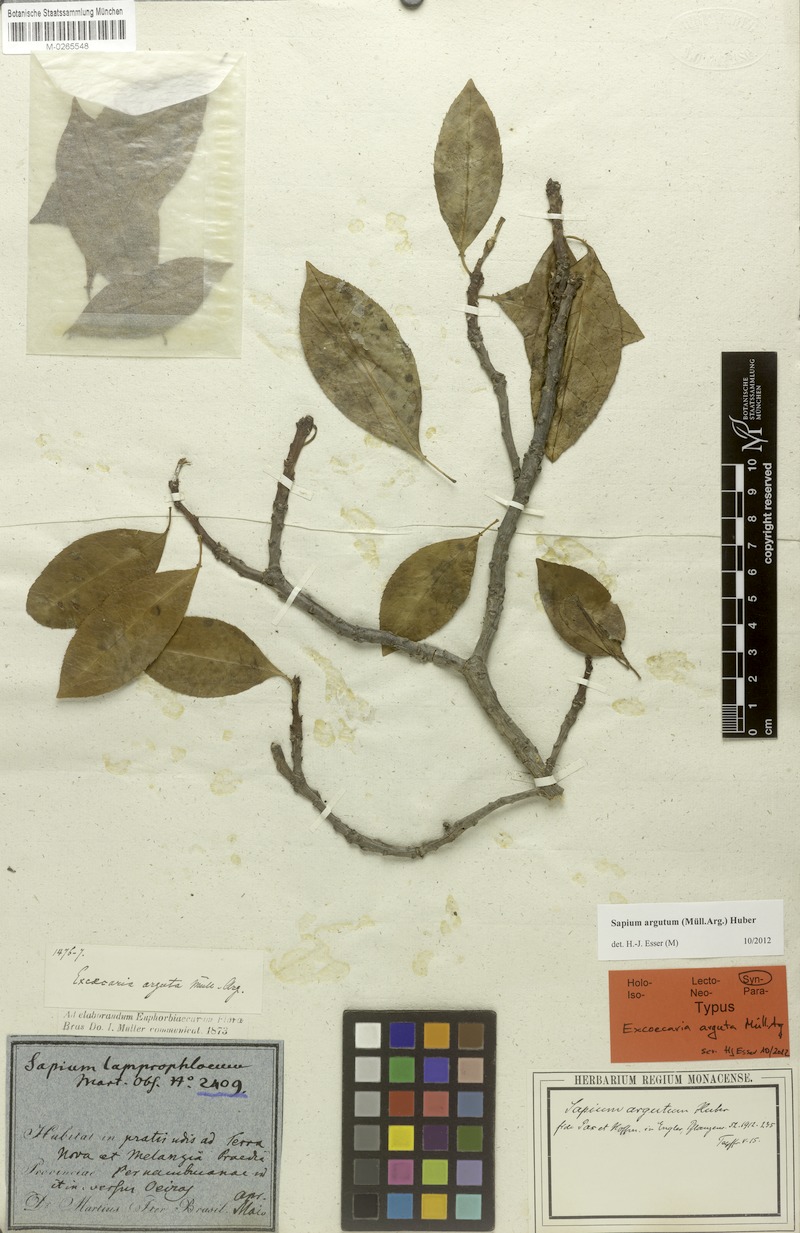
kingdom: Plantae
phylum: Tracheophyta
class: Magnoliopsida
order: Malpighiales
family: Euphorbiaceae
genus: Sapium
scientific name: Sapium argutum
